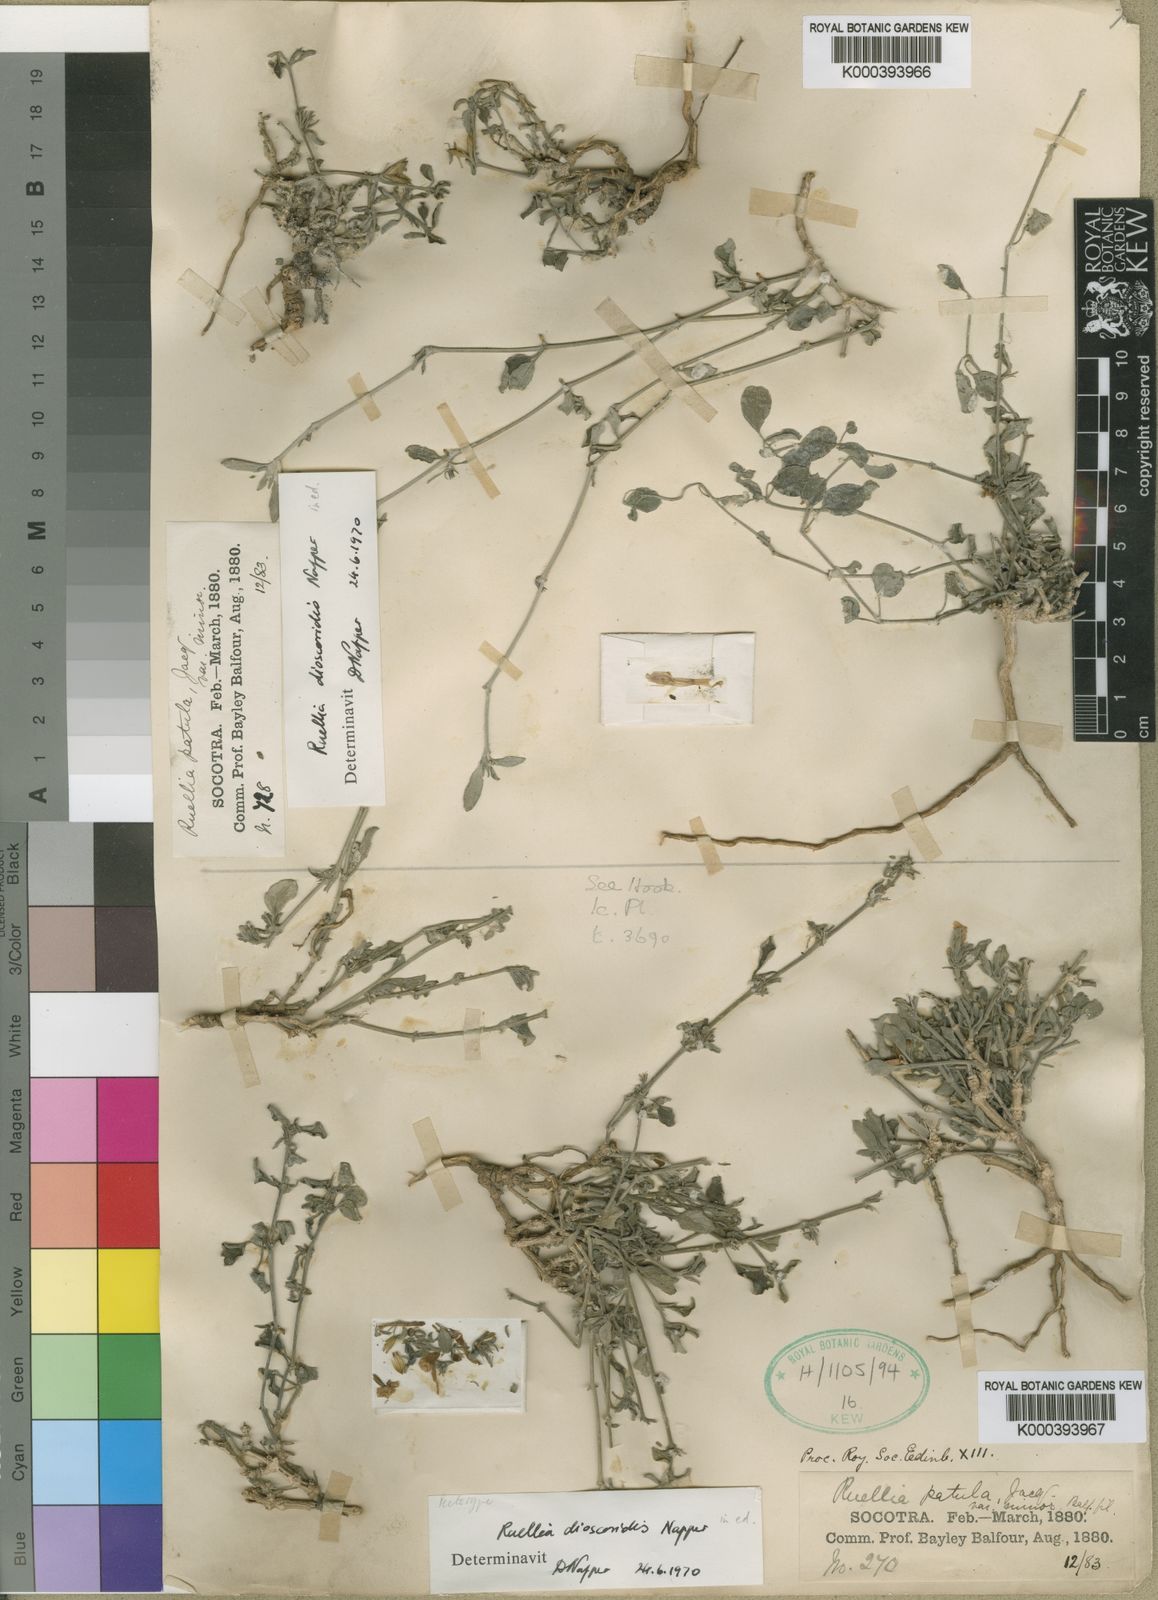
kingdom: Plantae
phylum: Tracheophyta
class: Magnoliopsida
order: Lamiales
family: Acanthaceae
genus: Ruellia
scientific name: Ruellia dioscoridis
